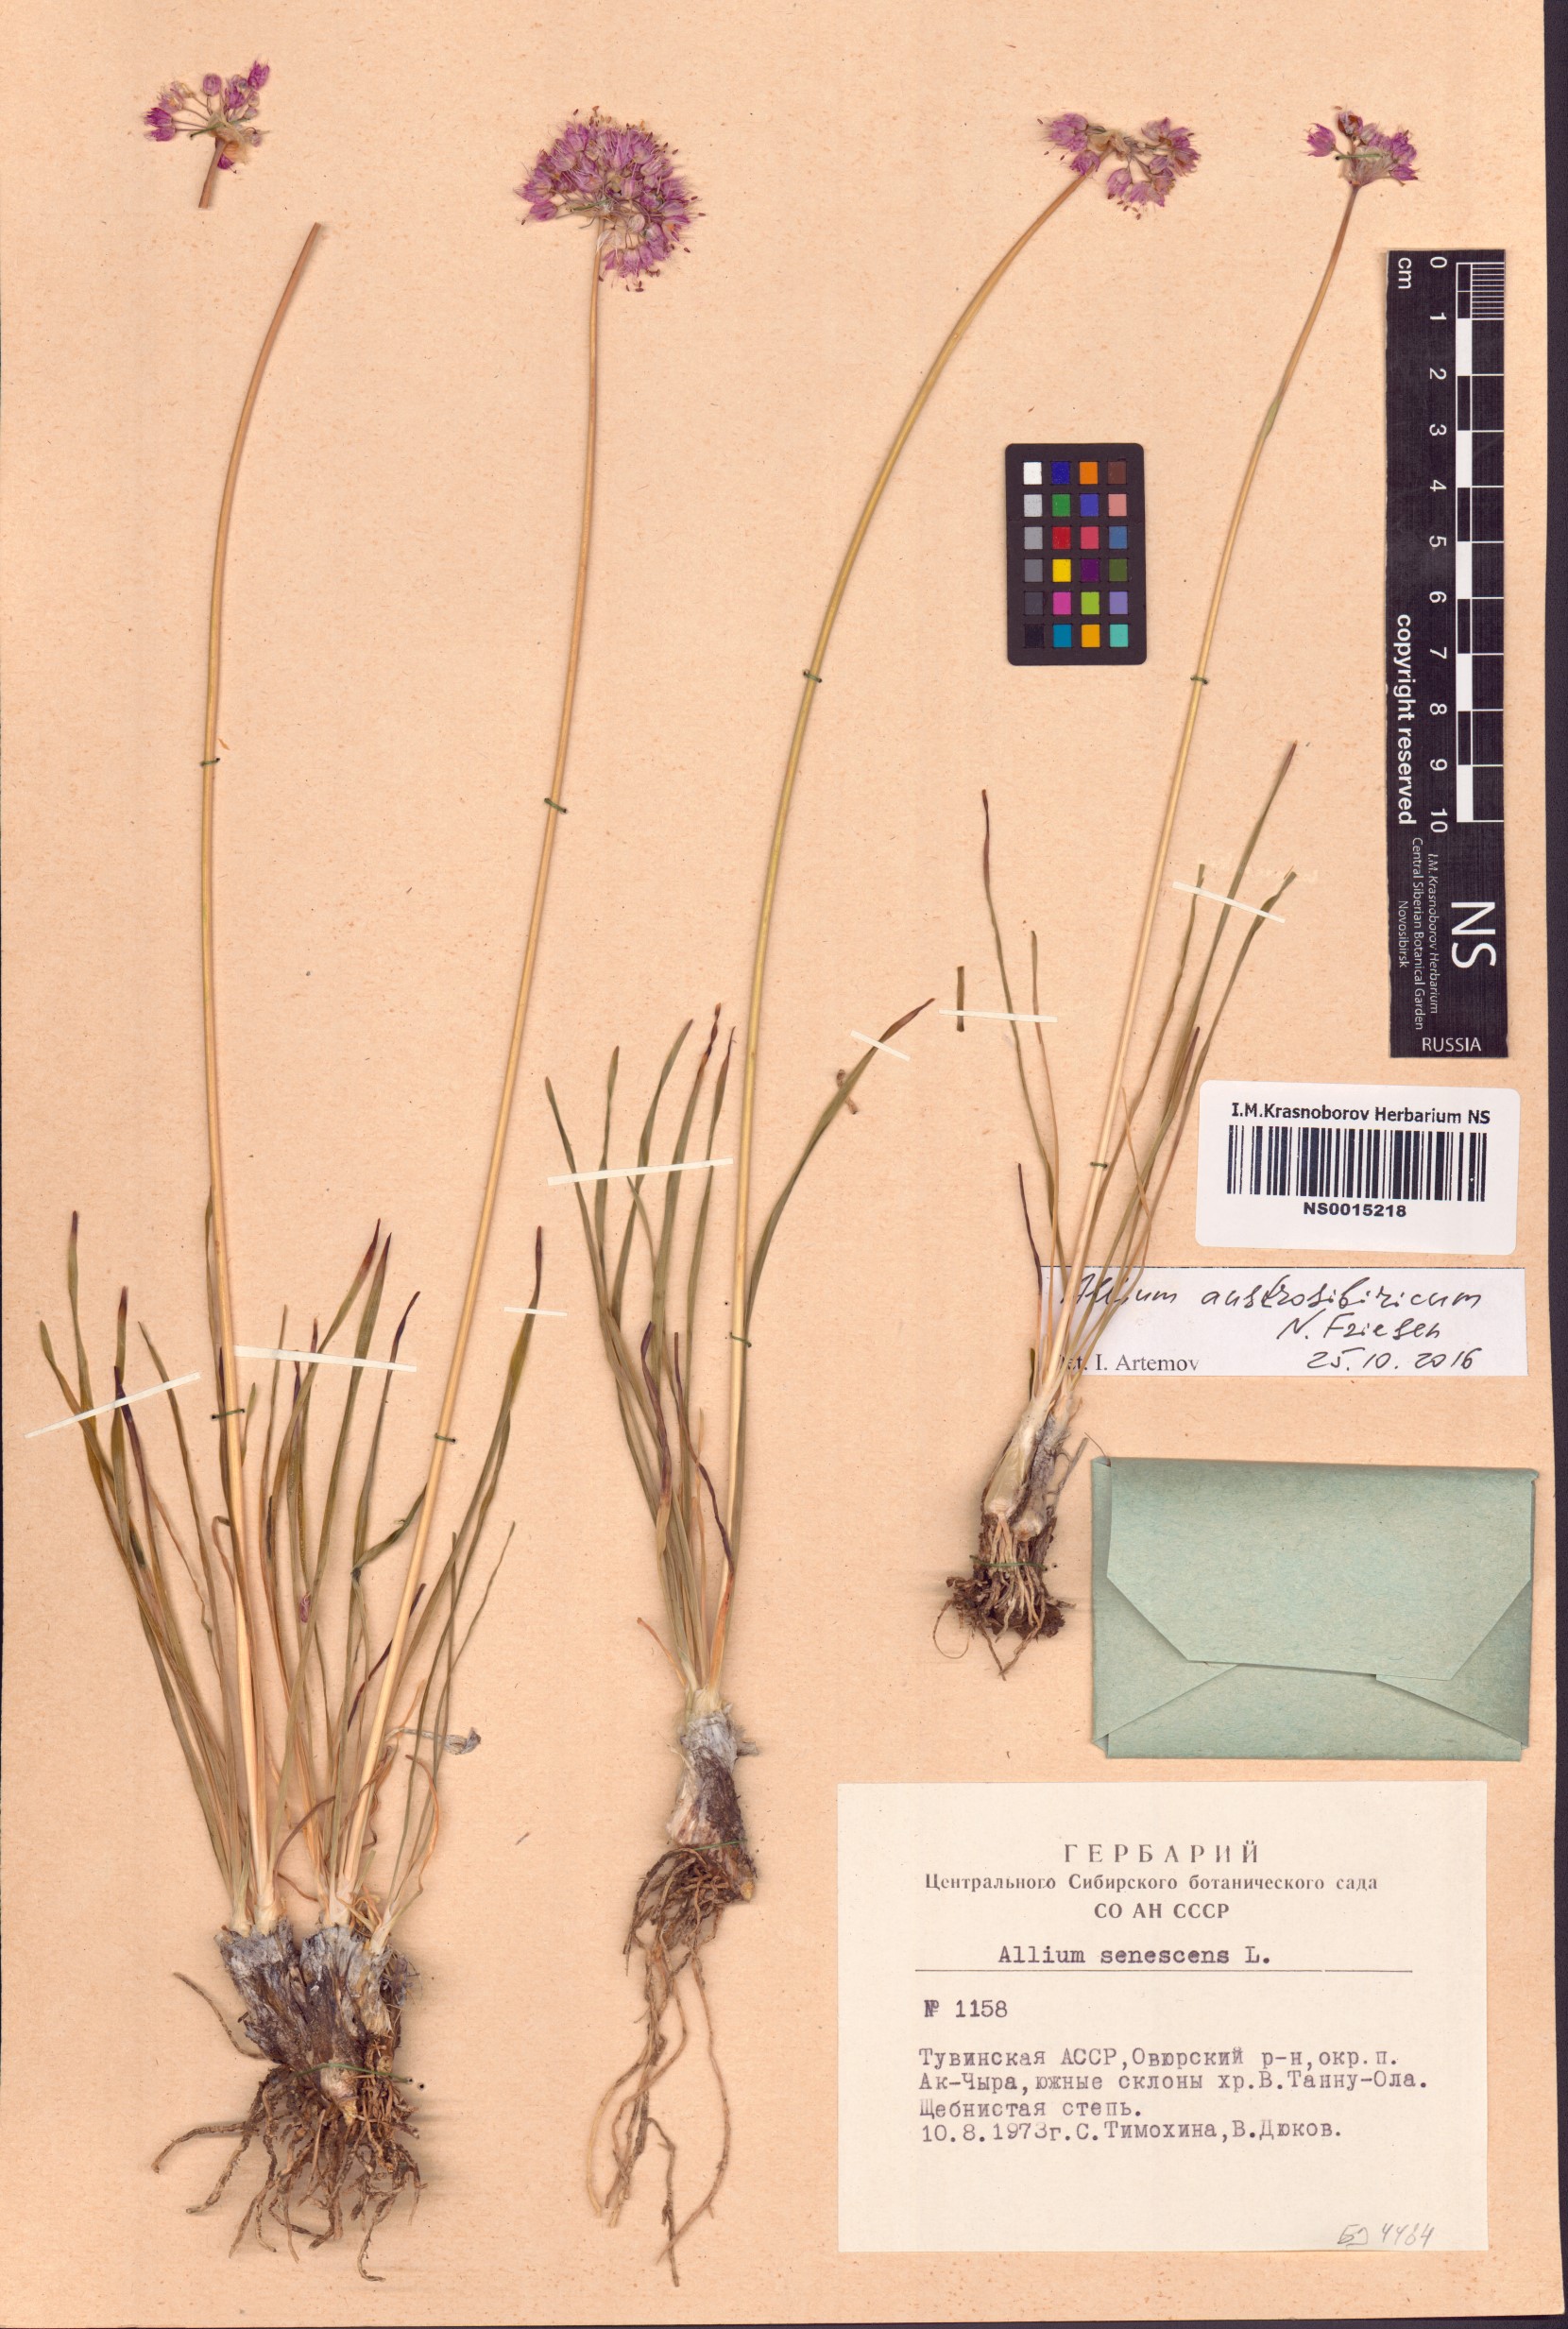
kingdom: Plantae
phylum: Tracheophyta
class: Liliopsida
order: Asparagales
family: Amaryllidaceae
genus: Allium
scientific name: Allium austrosibiricum
